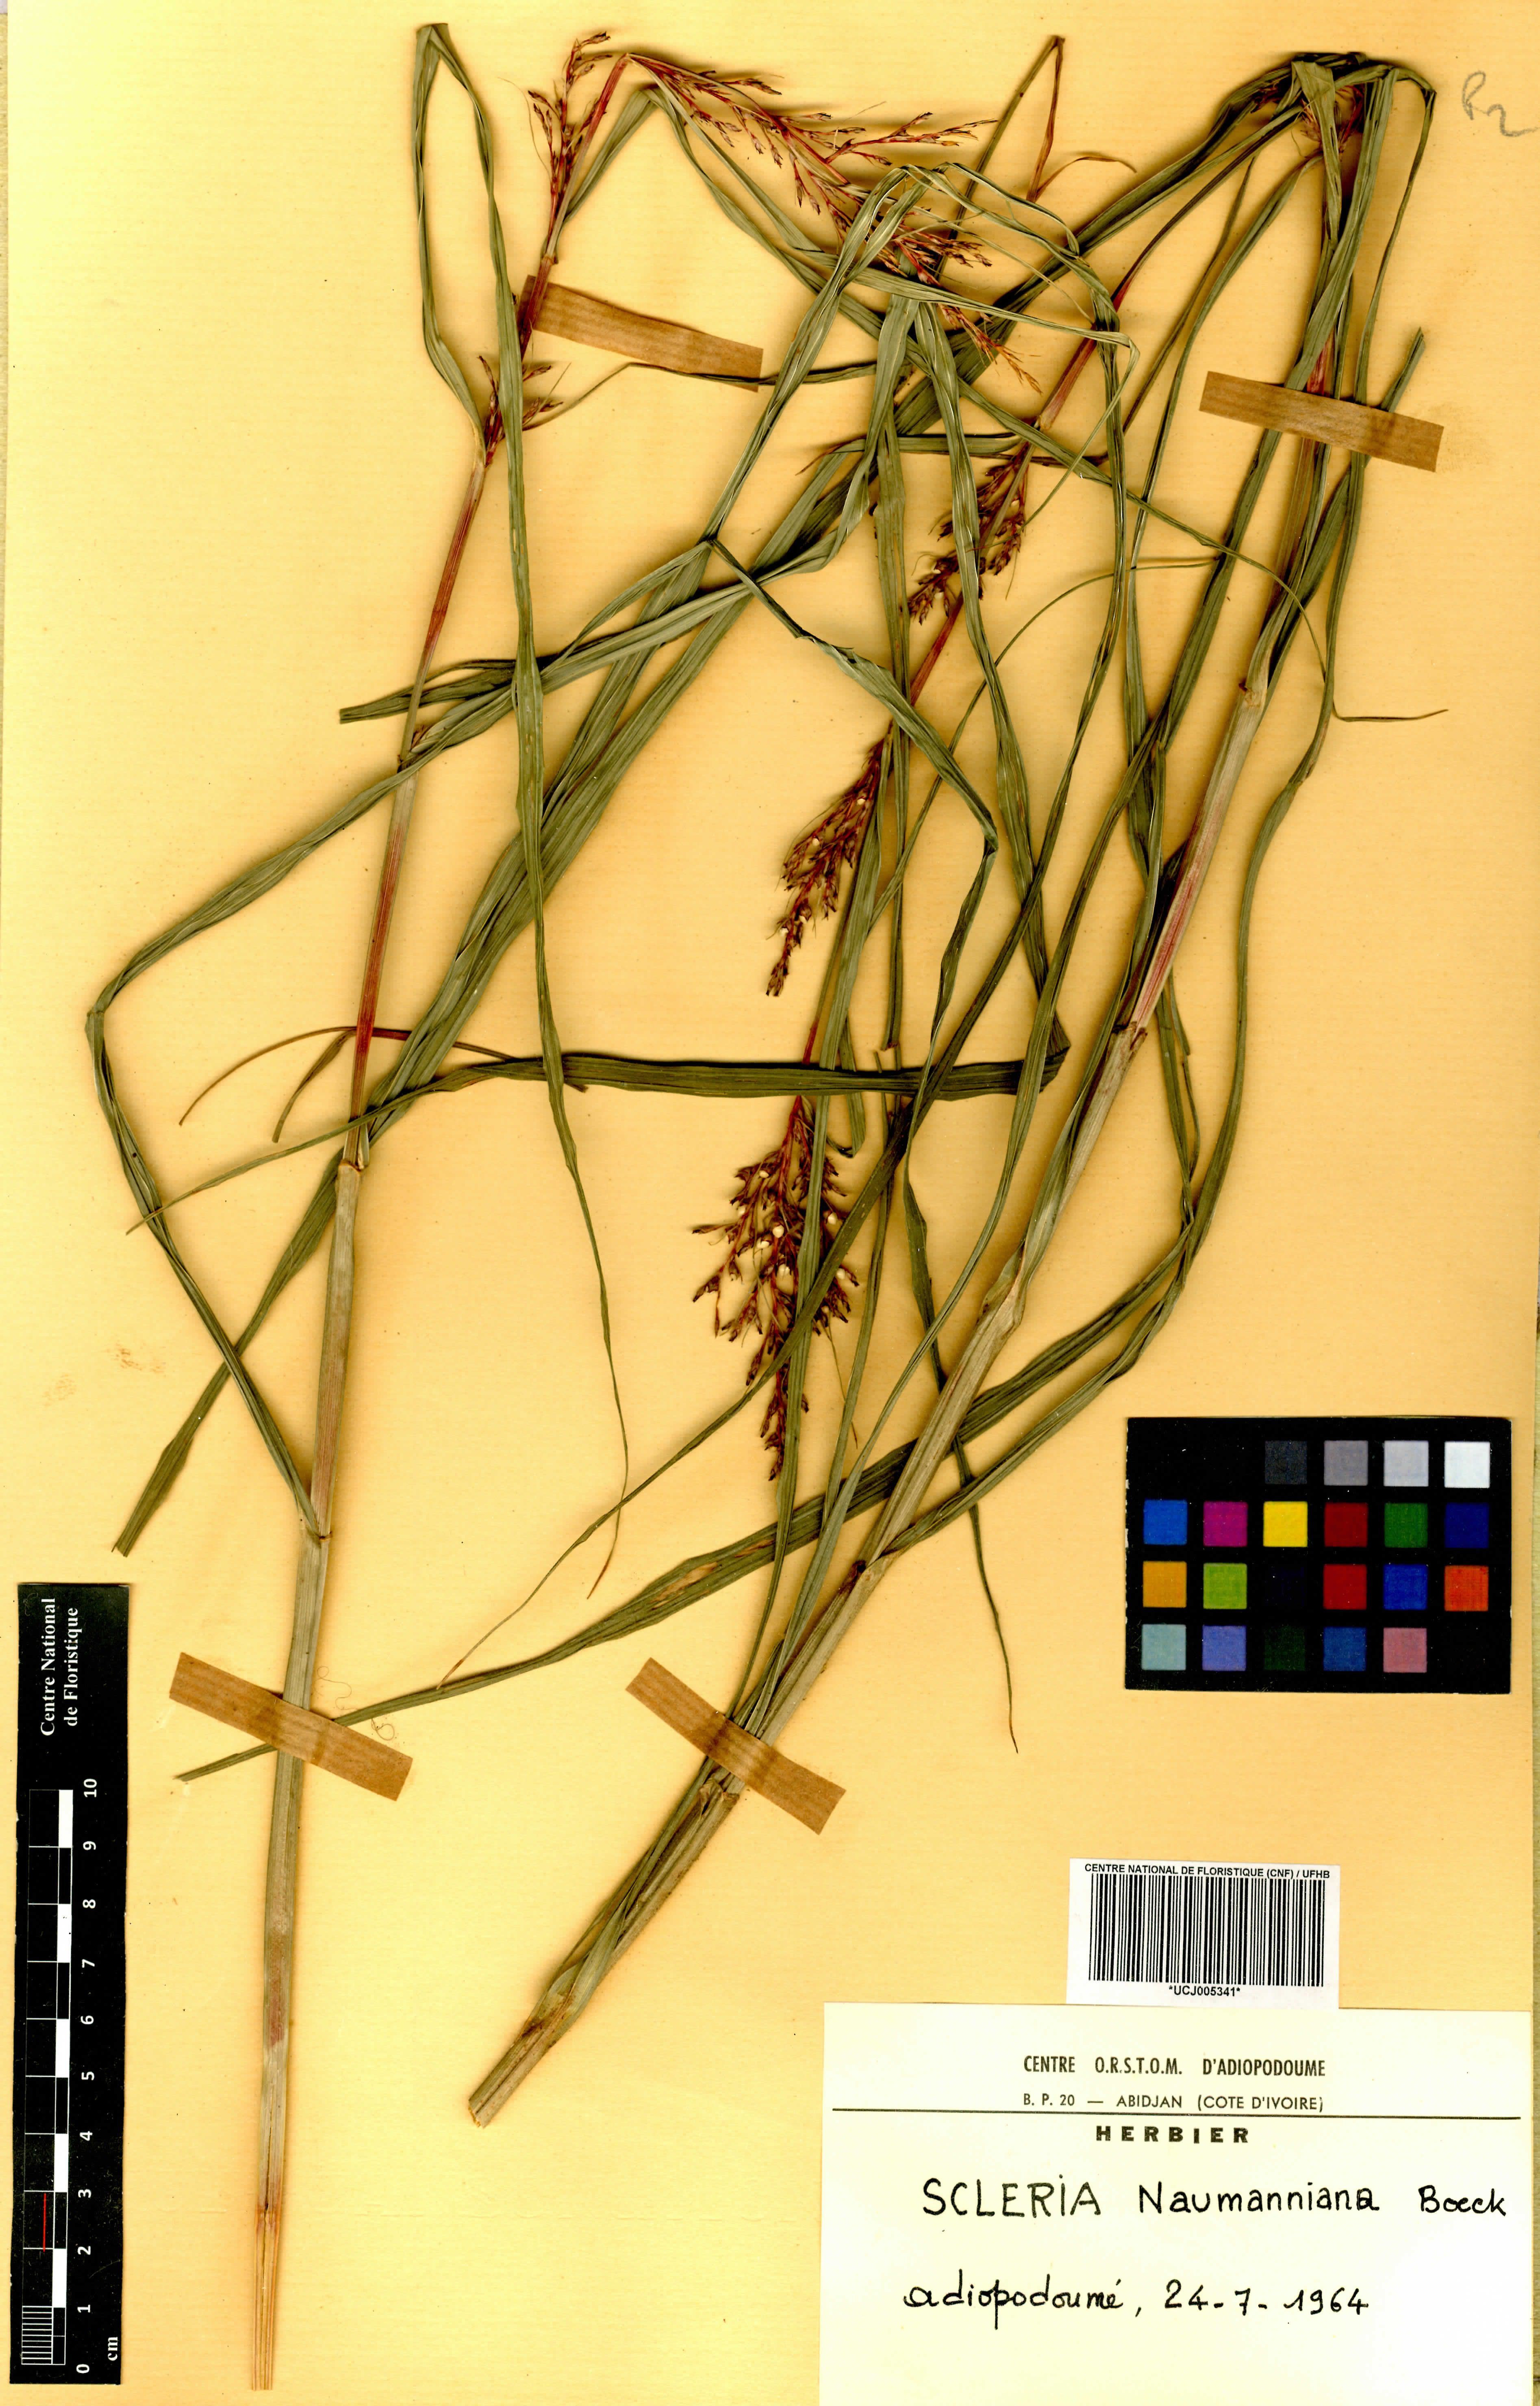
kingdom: Plantae
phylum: Tracheophyta
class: Liliopsida
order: Poales
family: Cyperaceae
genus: Scleria
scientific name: Scleria naumanniana
